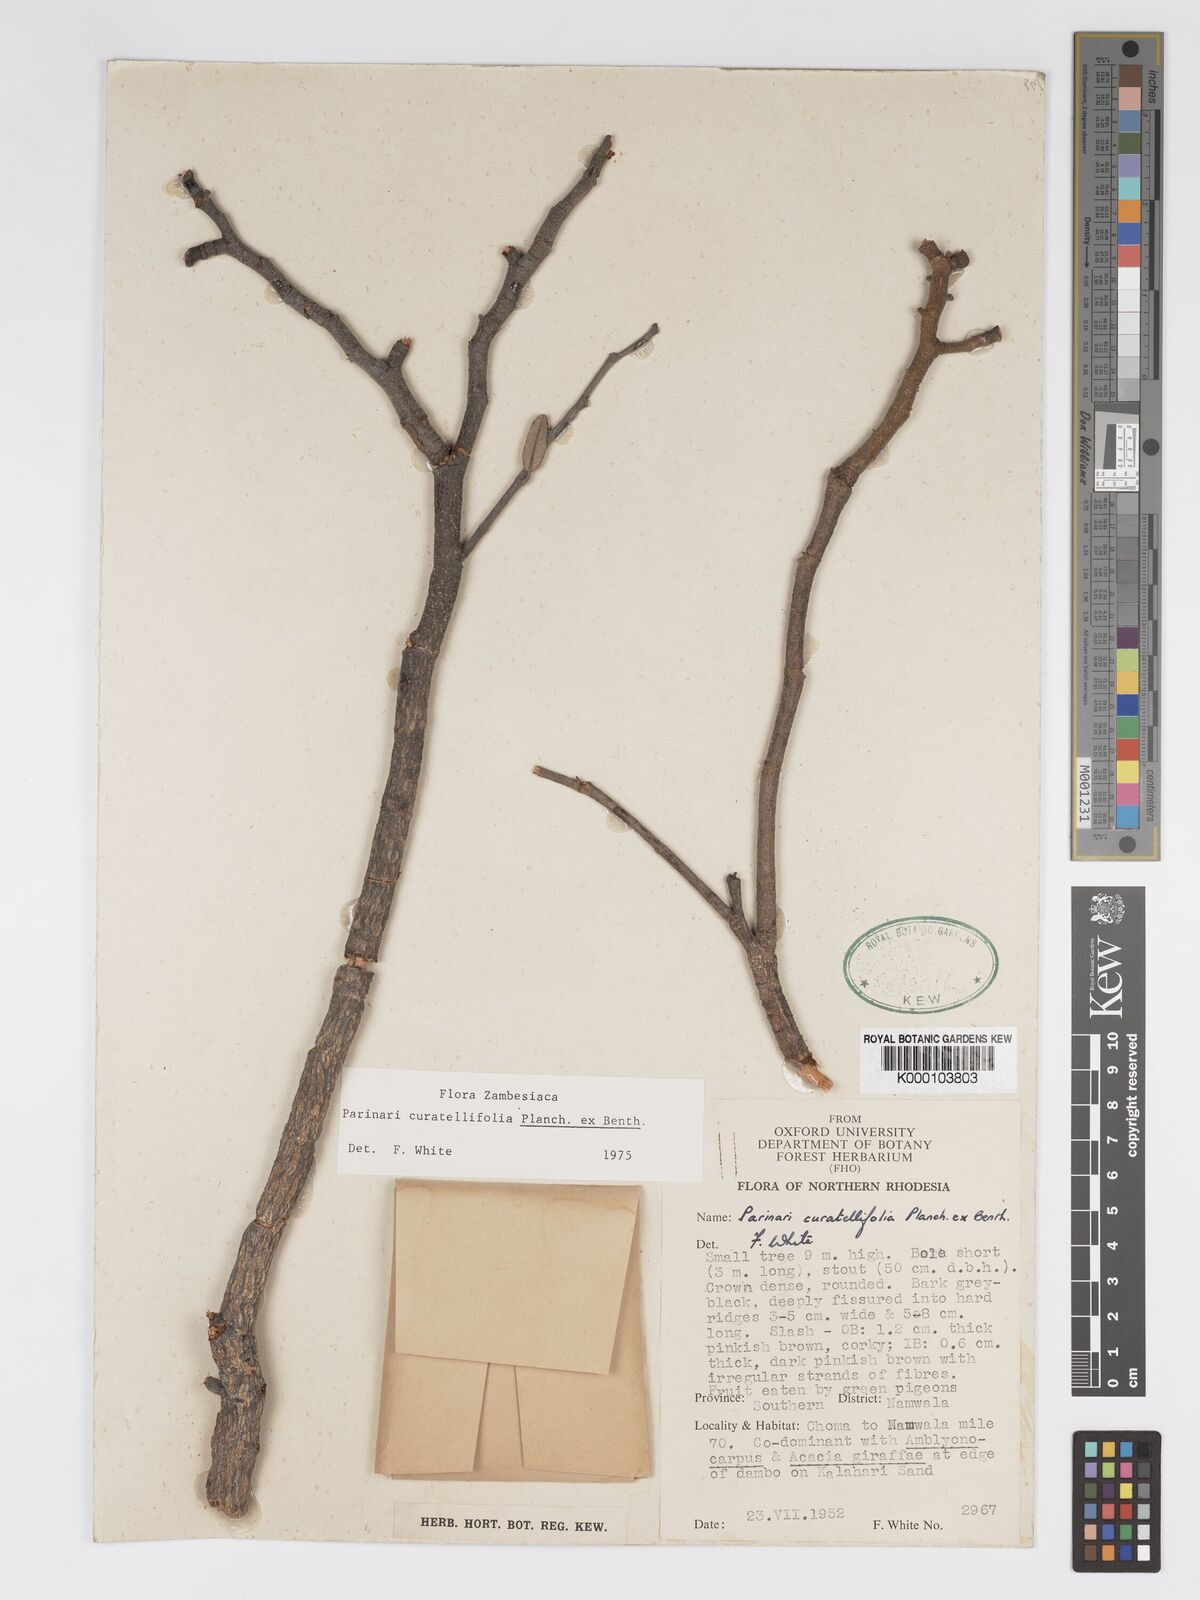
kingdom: Plantae
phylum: Tracheophyta
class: Magnoliopsida
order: Malpighiales
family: Chrysobalanaceae
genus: Parinari
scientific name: Parinari curatellifolia
